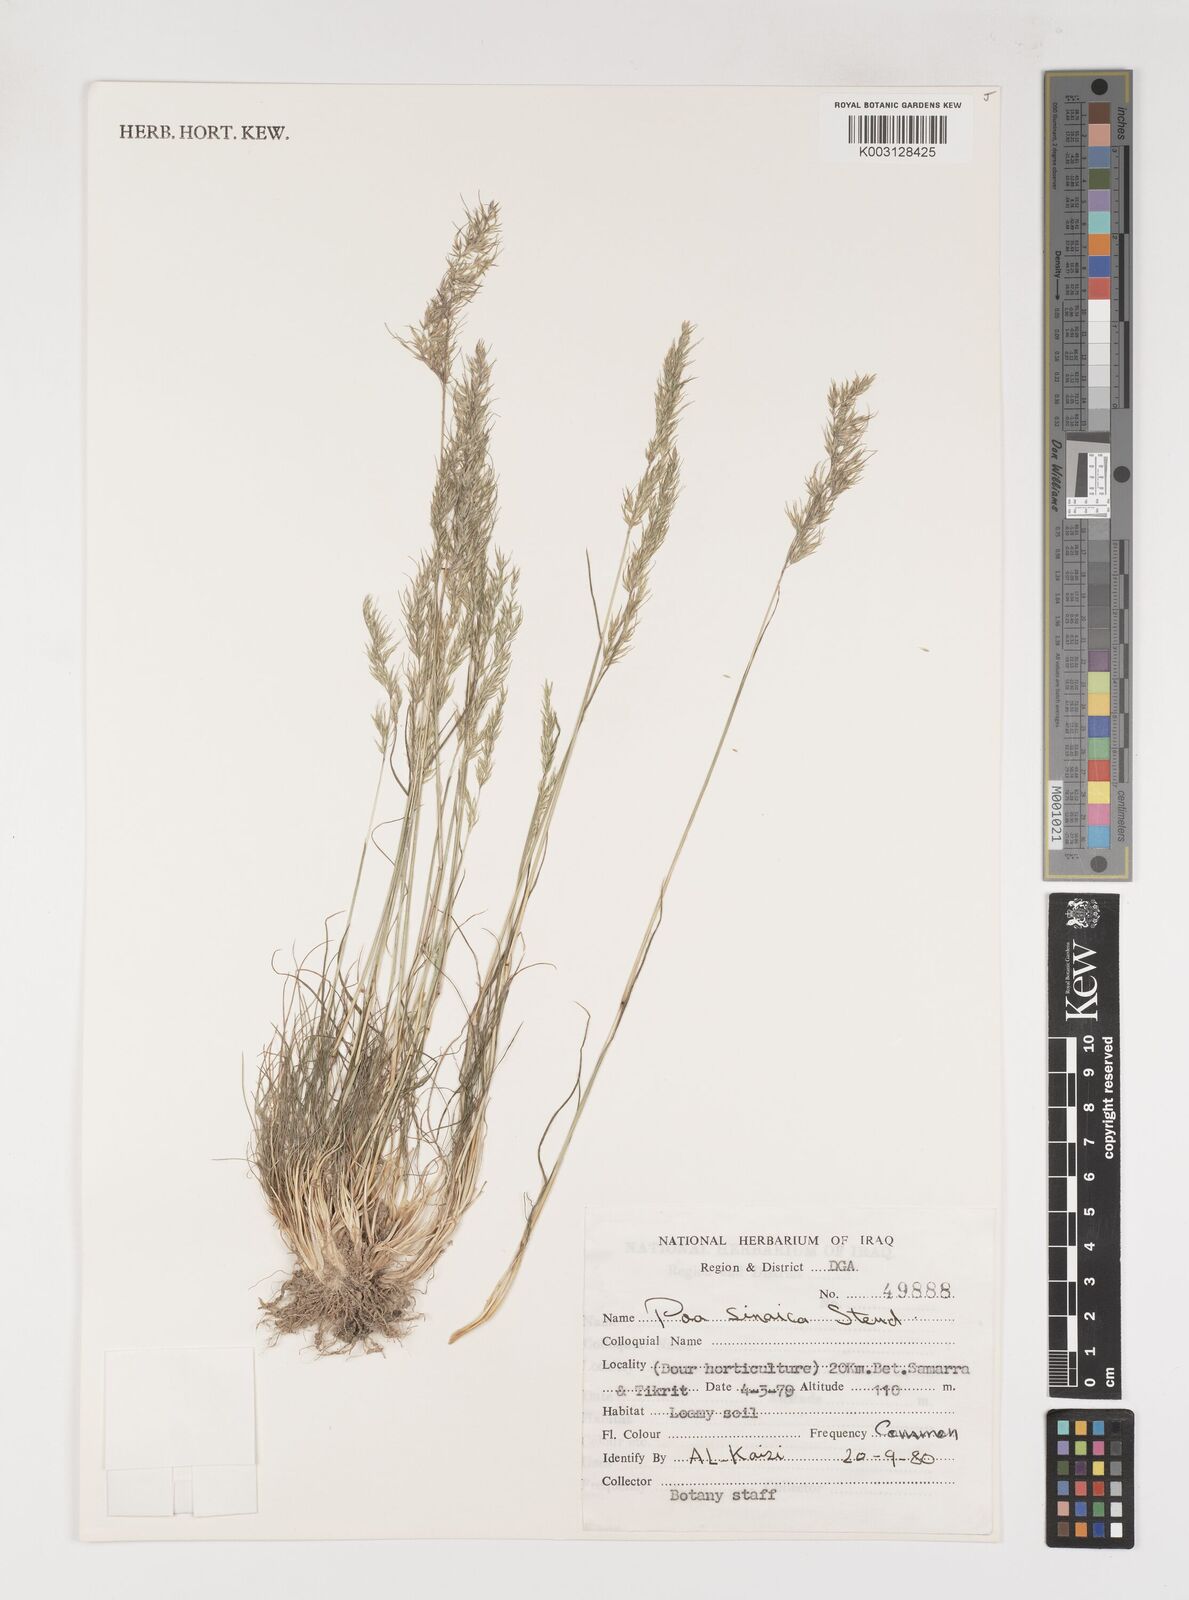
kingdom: Plantae
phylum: Tracheophyta
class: Liliopsida
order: Poales
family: Poaceae
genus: Poa
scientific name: Poa sinaica
